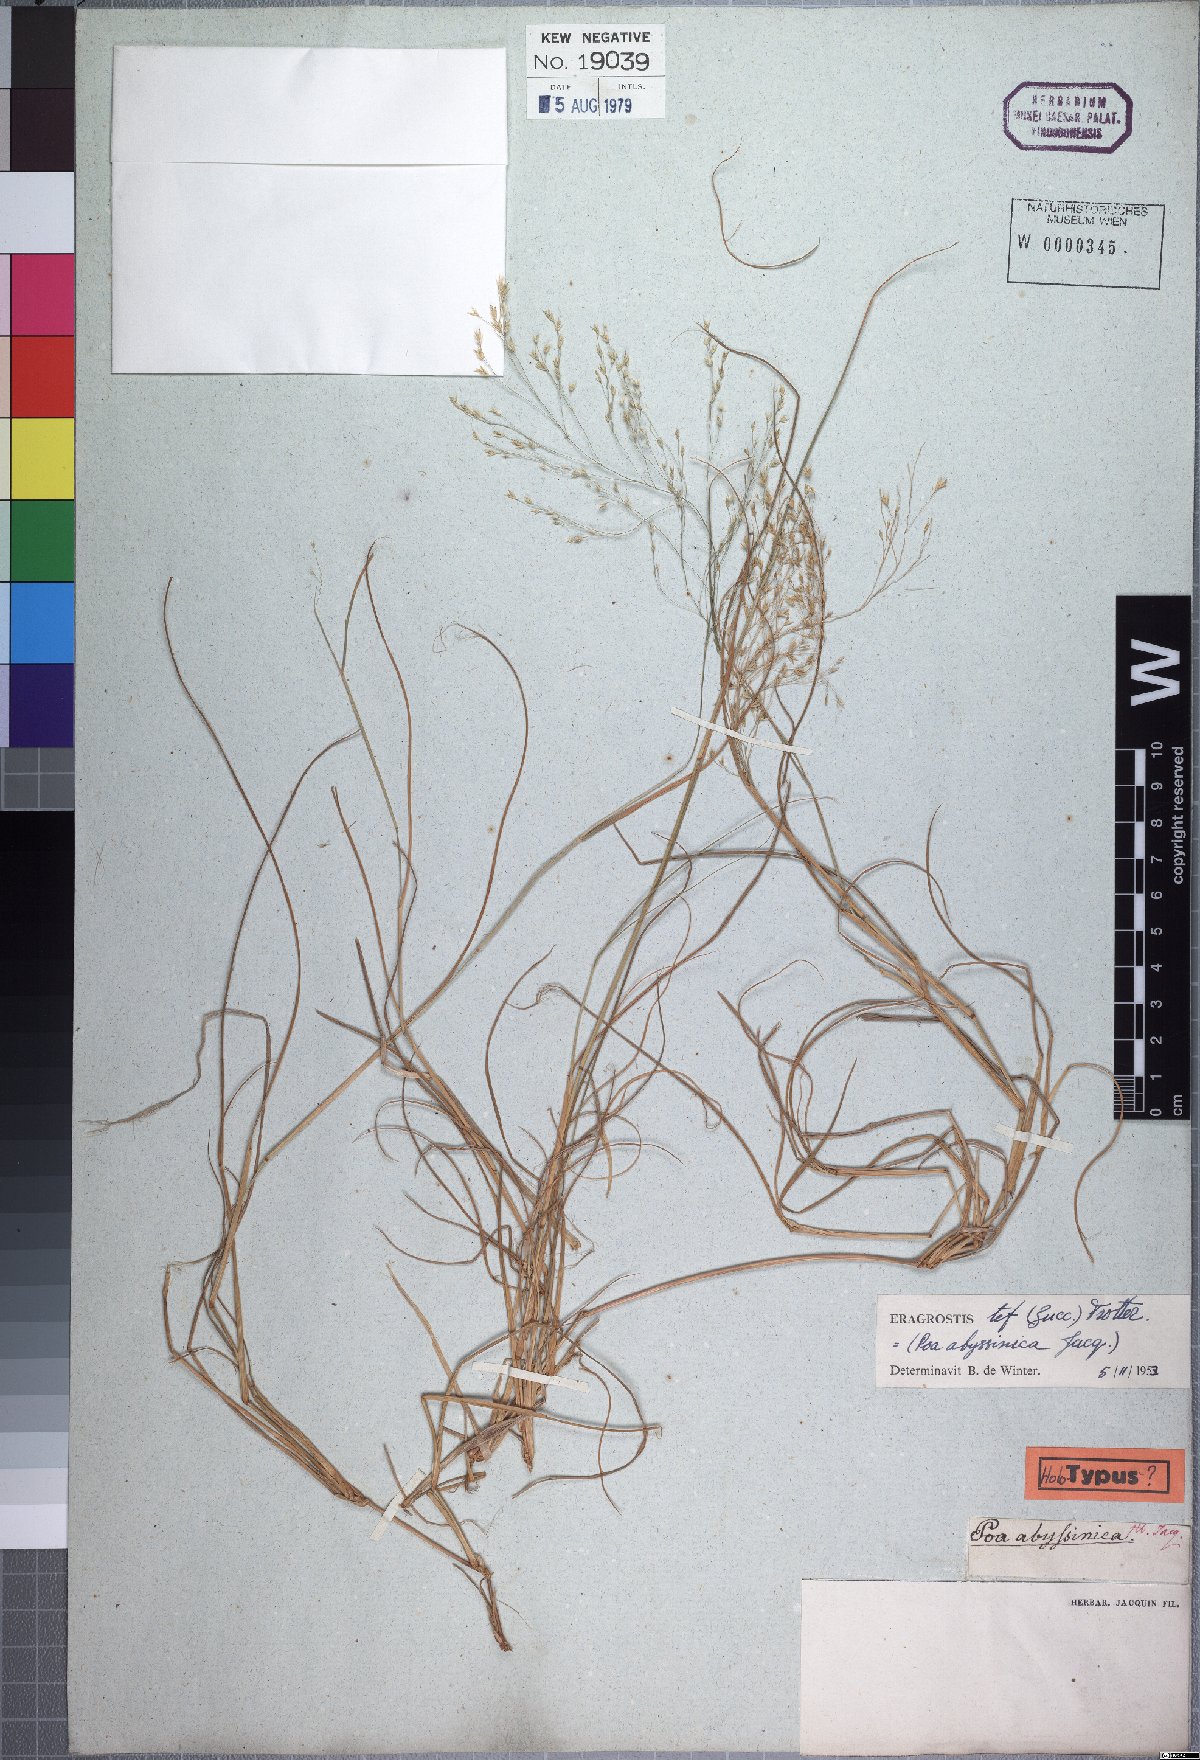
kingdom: Plantae
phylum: Tracheophyta
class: Liliopsida
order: Poales
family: Poaceae
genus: Eragrostis
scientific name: Eragrostis tef
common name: Teff
